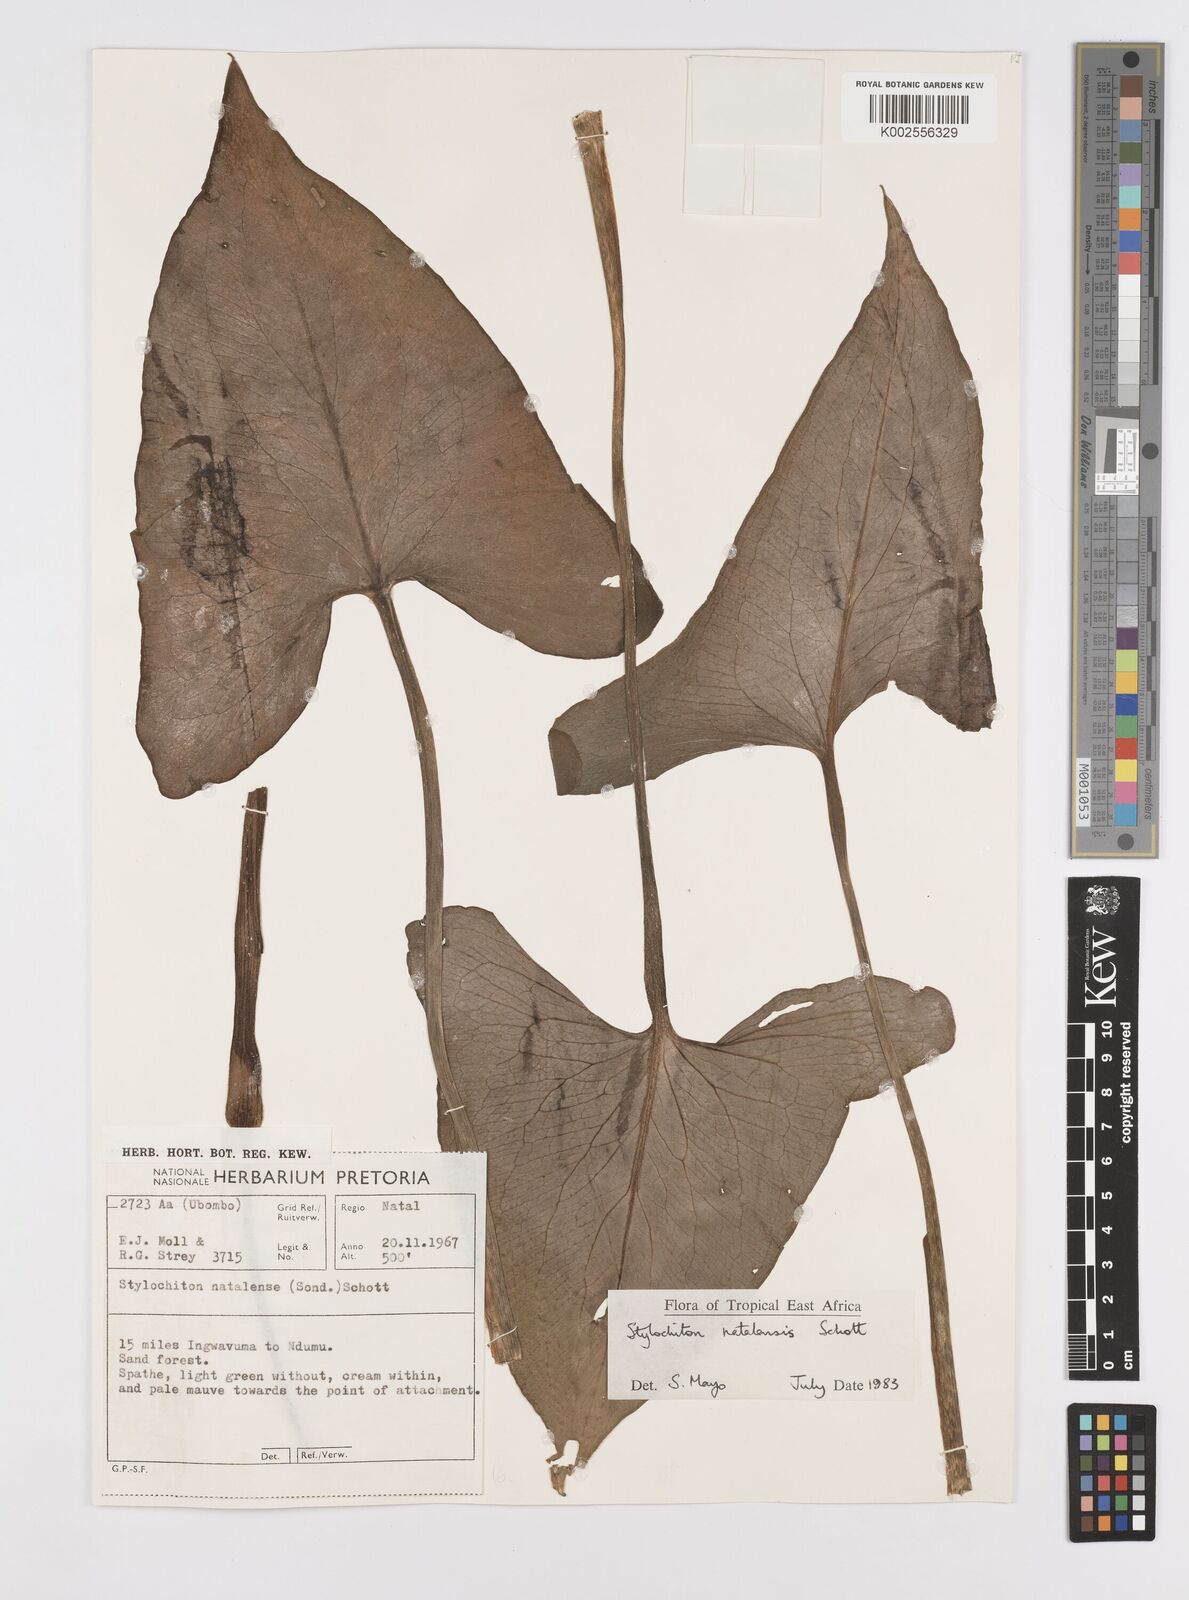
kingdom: Plantae
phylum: Tracheophyta
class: Liliopsida
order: Alismatales
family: Araceae
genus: Stylochaeton
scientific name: Stylochaeton natalense
